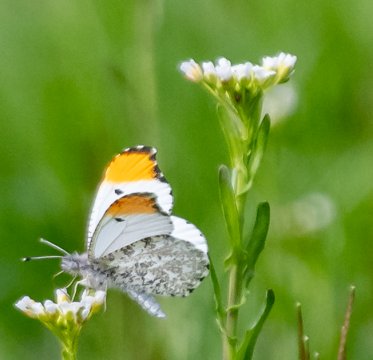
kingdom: Animalia
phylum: Arthropoda
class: Insecta
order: Lepidoptera
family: Pieridae
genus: Anthocharis
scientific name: Anthocharis midea
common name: Falcate Orangetip
